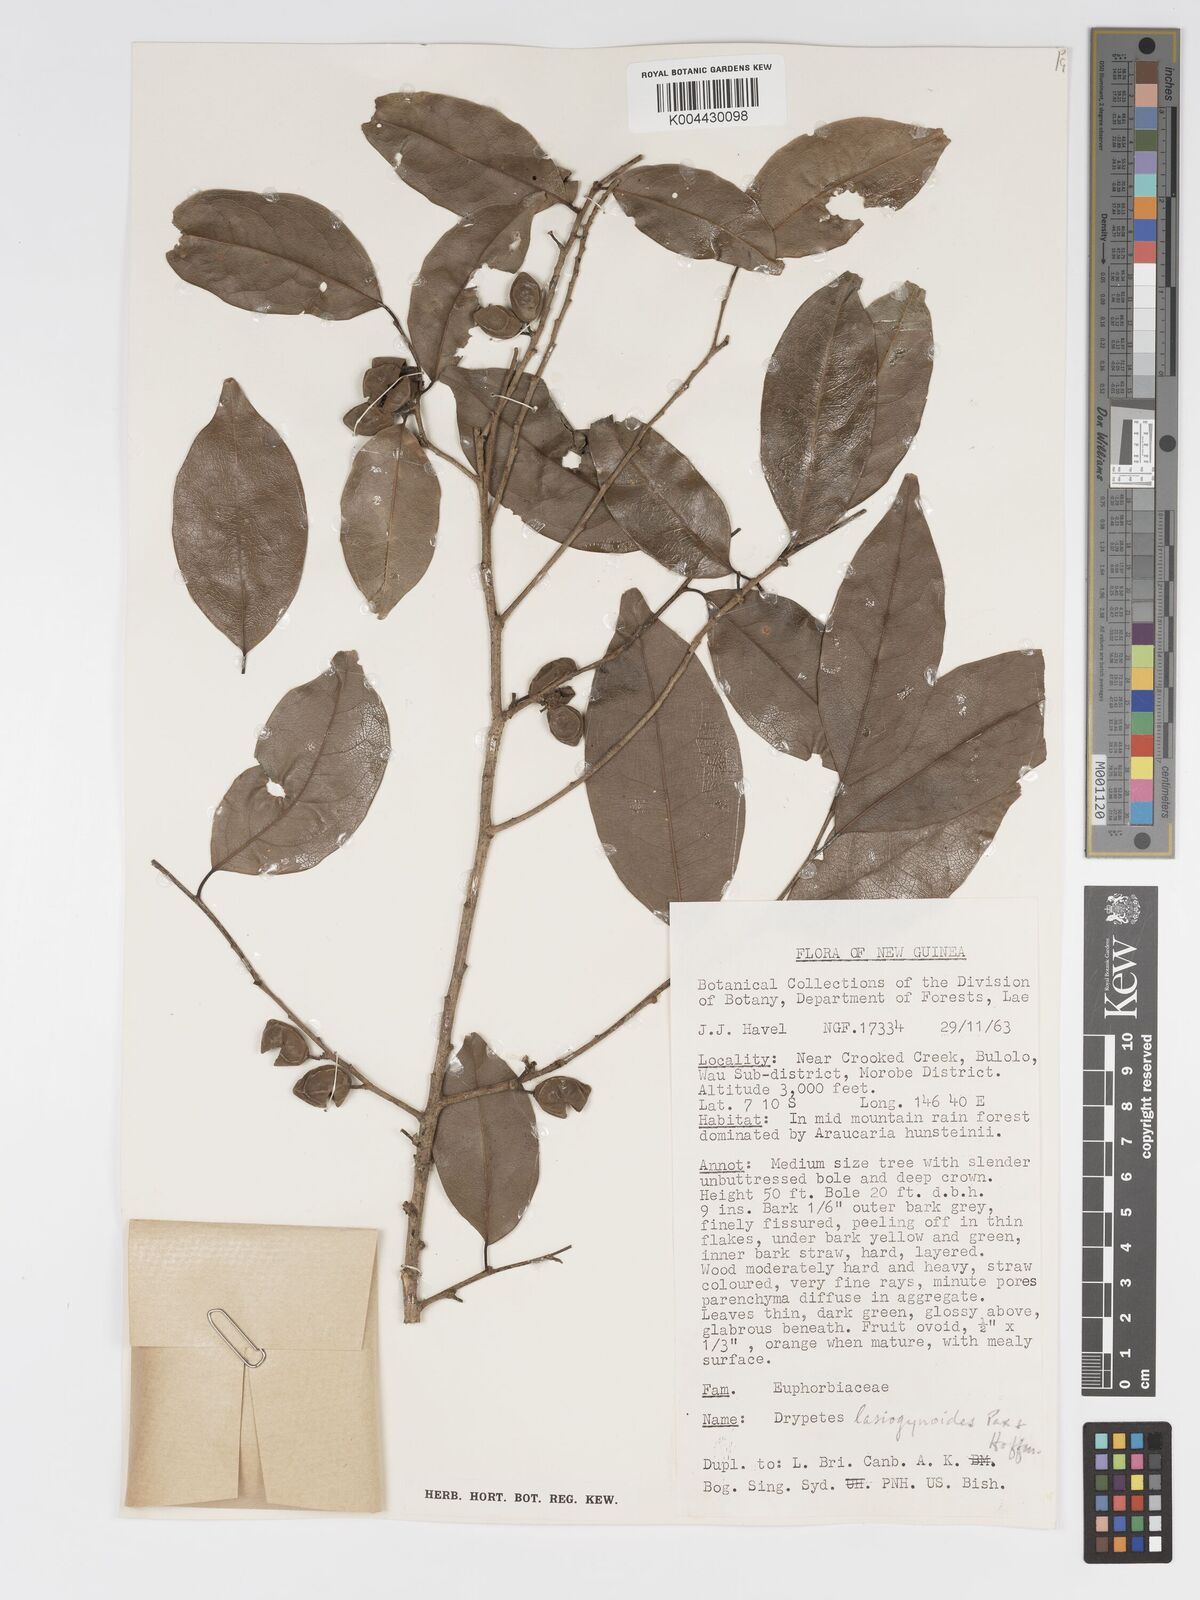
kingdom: Plantae
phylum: Tracheophyta
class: Magnoliopsida
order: Malpighiales
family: Putranjivaceae
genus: Drypetes
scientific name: Drypetes lasiogynoides
